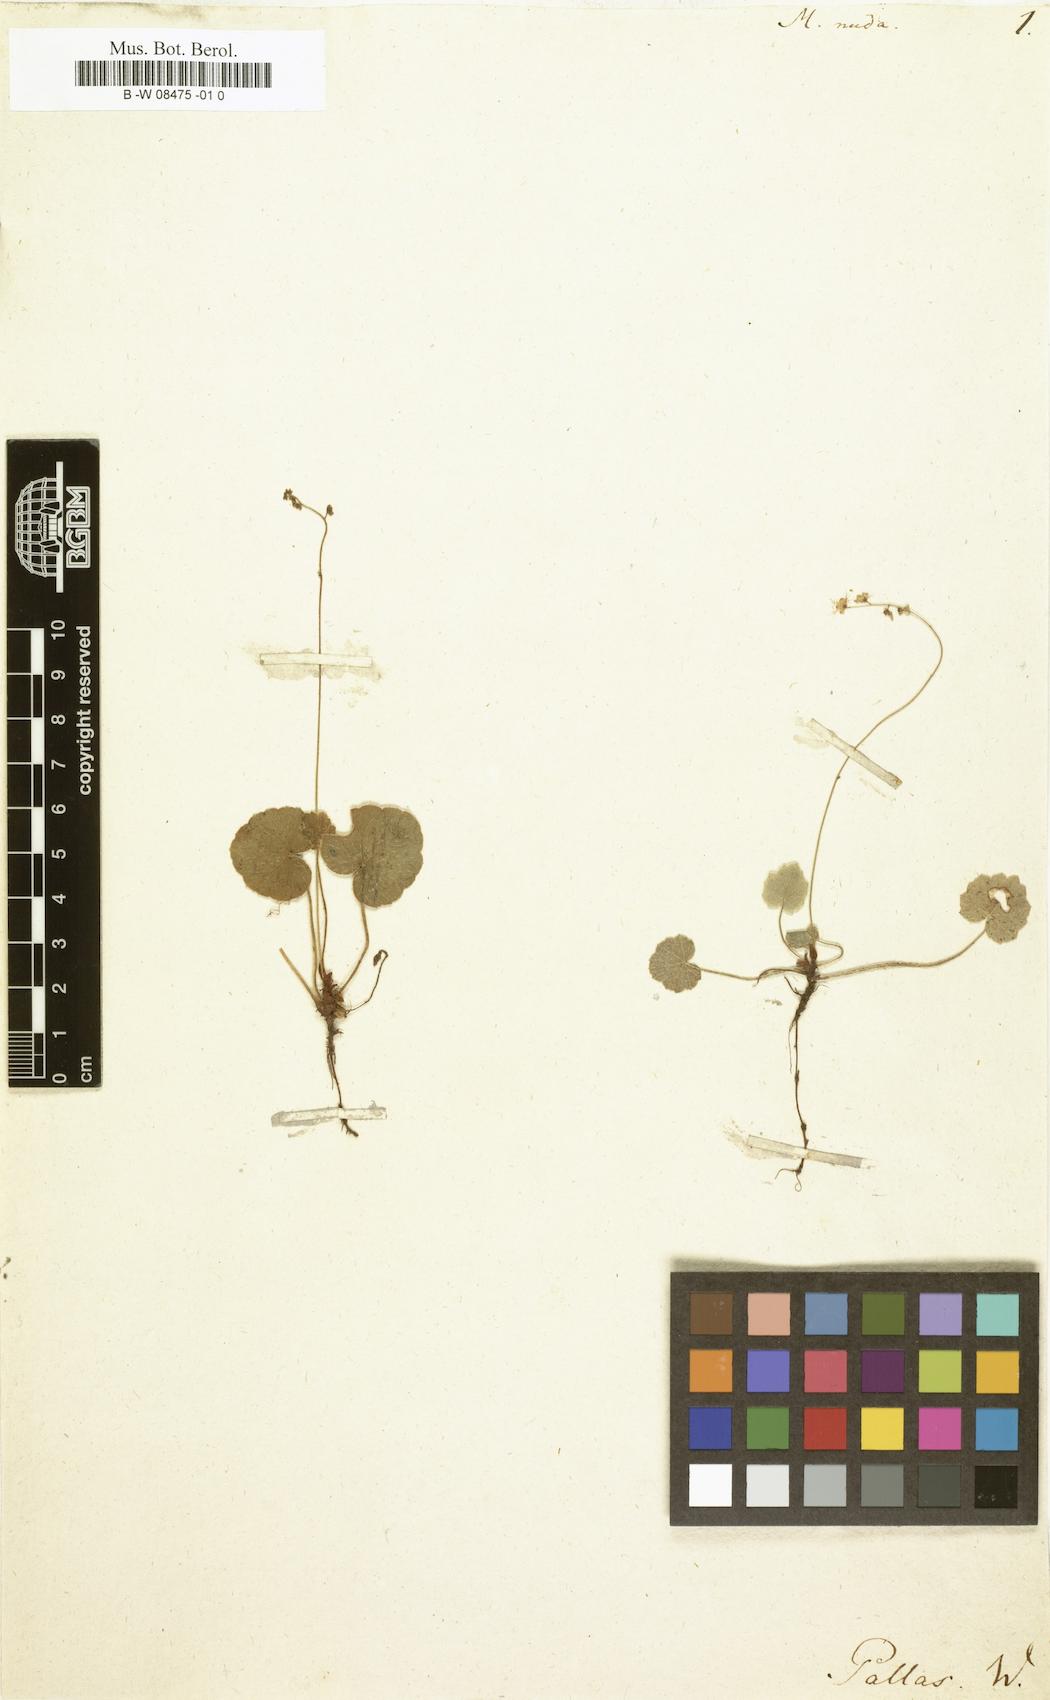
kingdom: Plantae
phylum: Tracheophyta
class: Magnoliopsida
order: Saxifragales
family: Saxifragaceae
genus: Mitella
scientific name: Mitella nuda
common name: Bare-stemmed bishop's-cap
